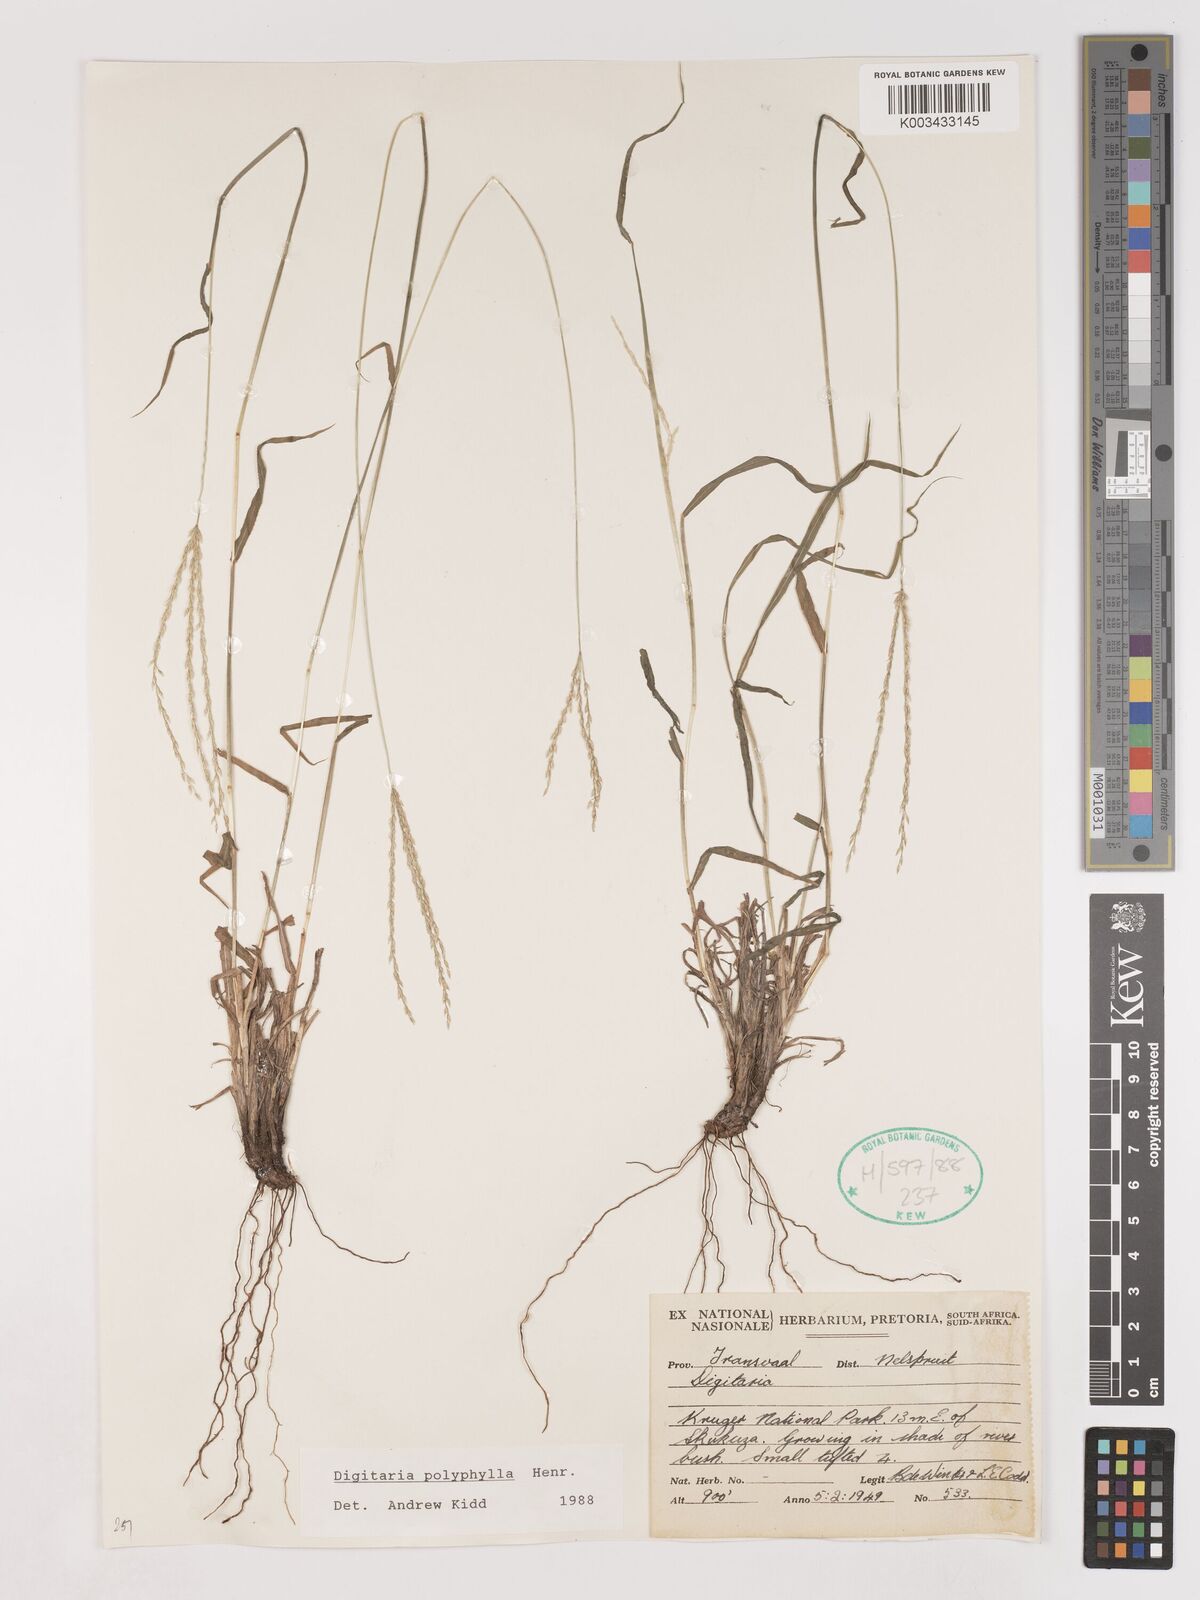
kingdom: Plantae
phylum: Tracheophyta
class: Liliopsida
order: Poales
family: Poaceae
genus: Digitaria
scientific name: Digitaria polyphylla
